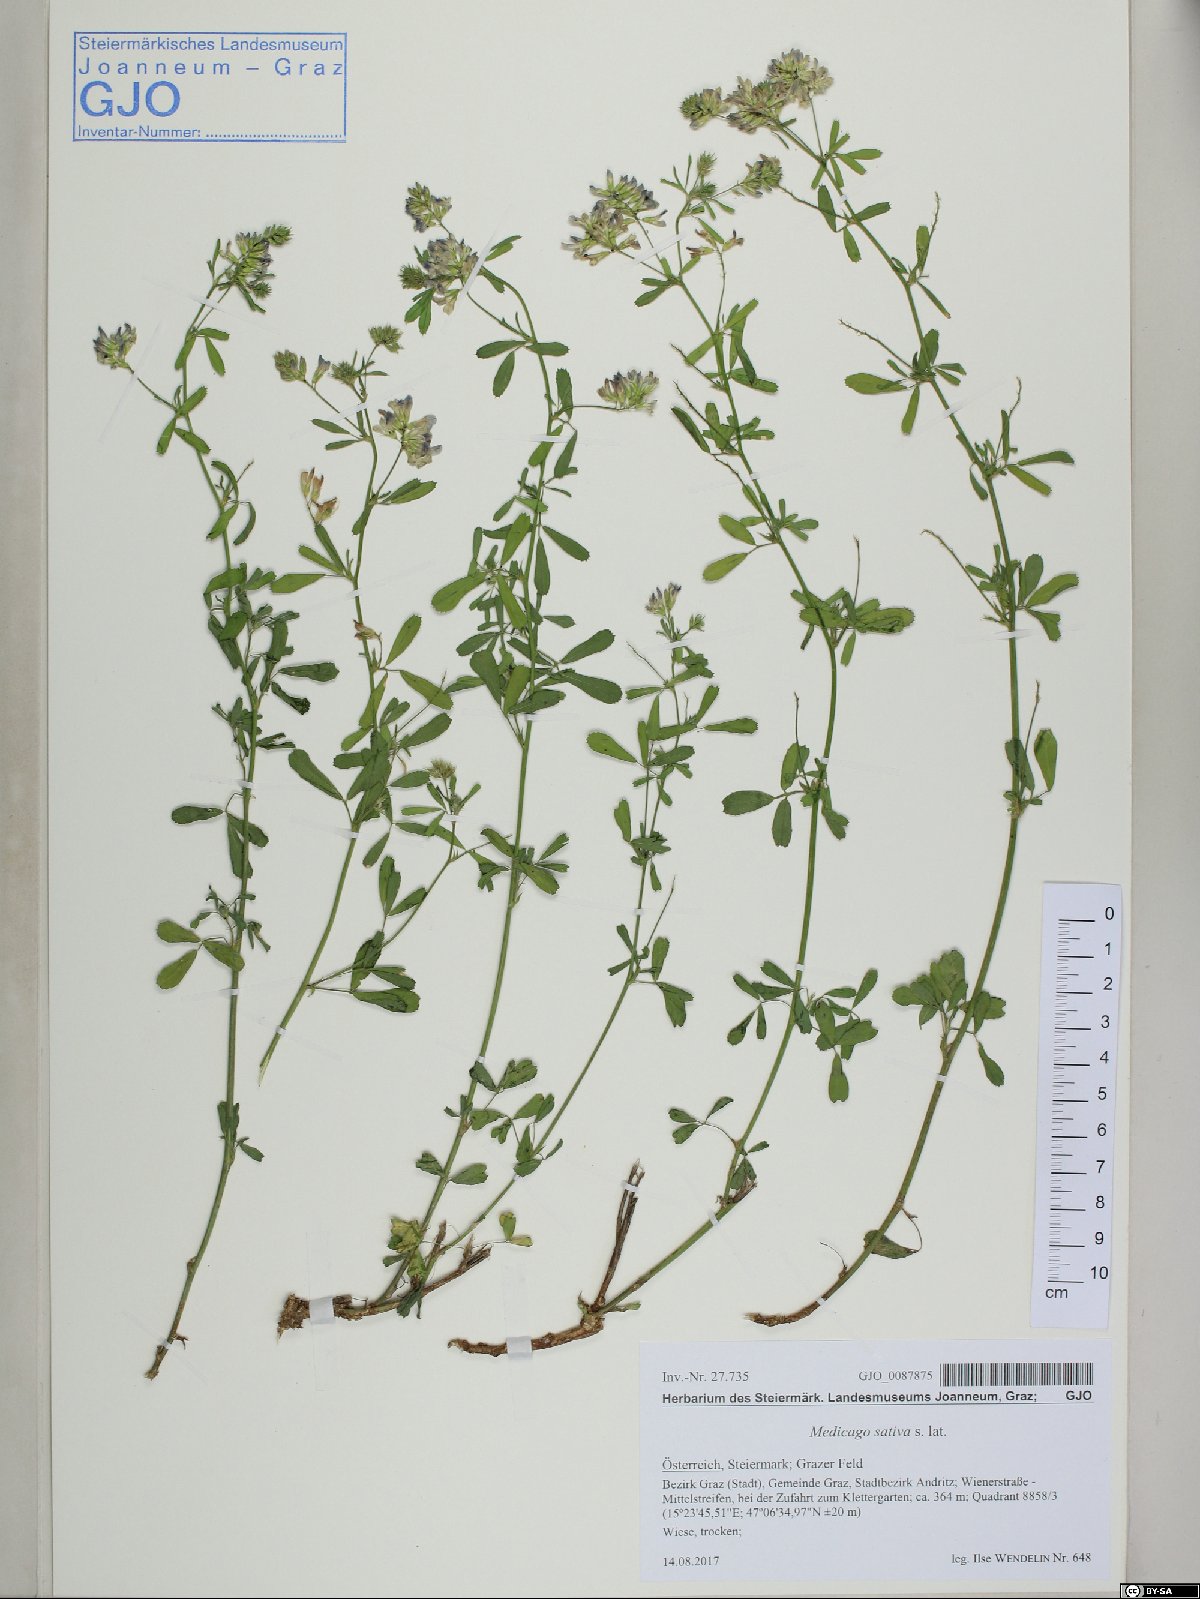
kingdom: Plantae
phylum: Tracheophyta
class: Magnoliopsida
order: Fabales
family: Fabaceae
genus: Medicago
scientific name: Medicago sativa
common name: Alfalfa
